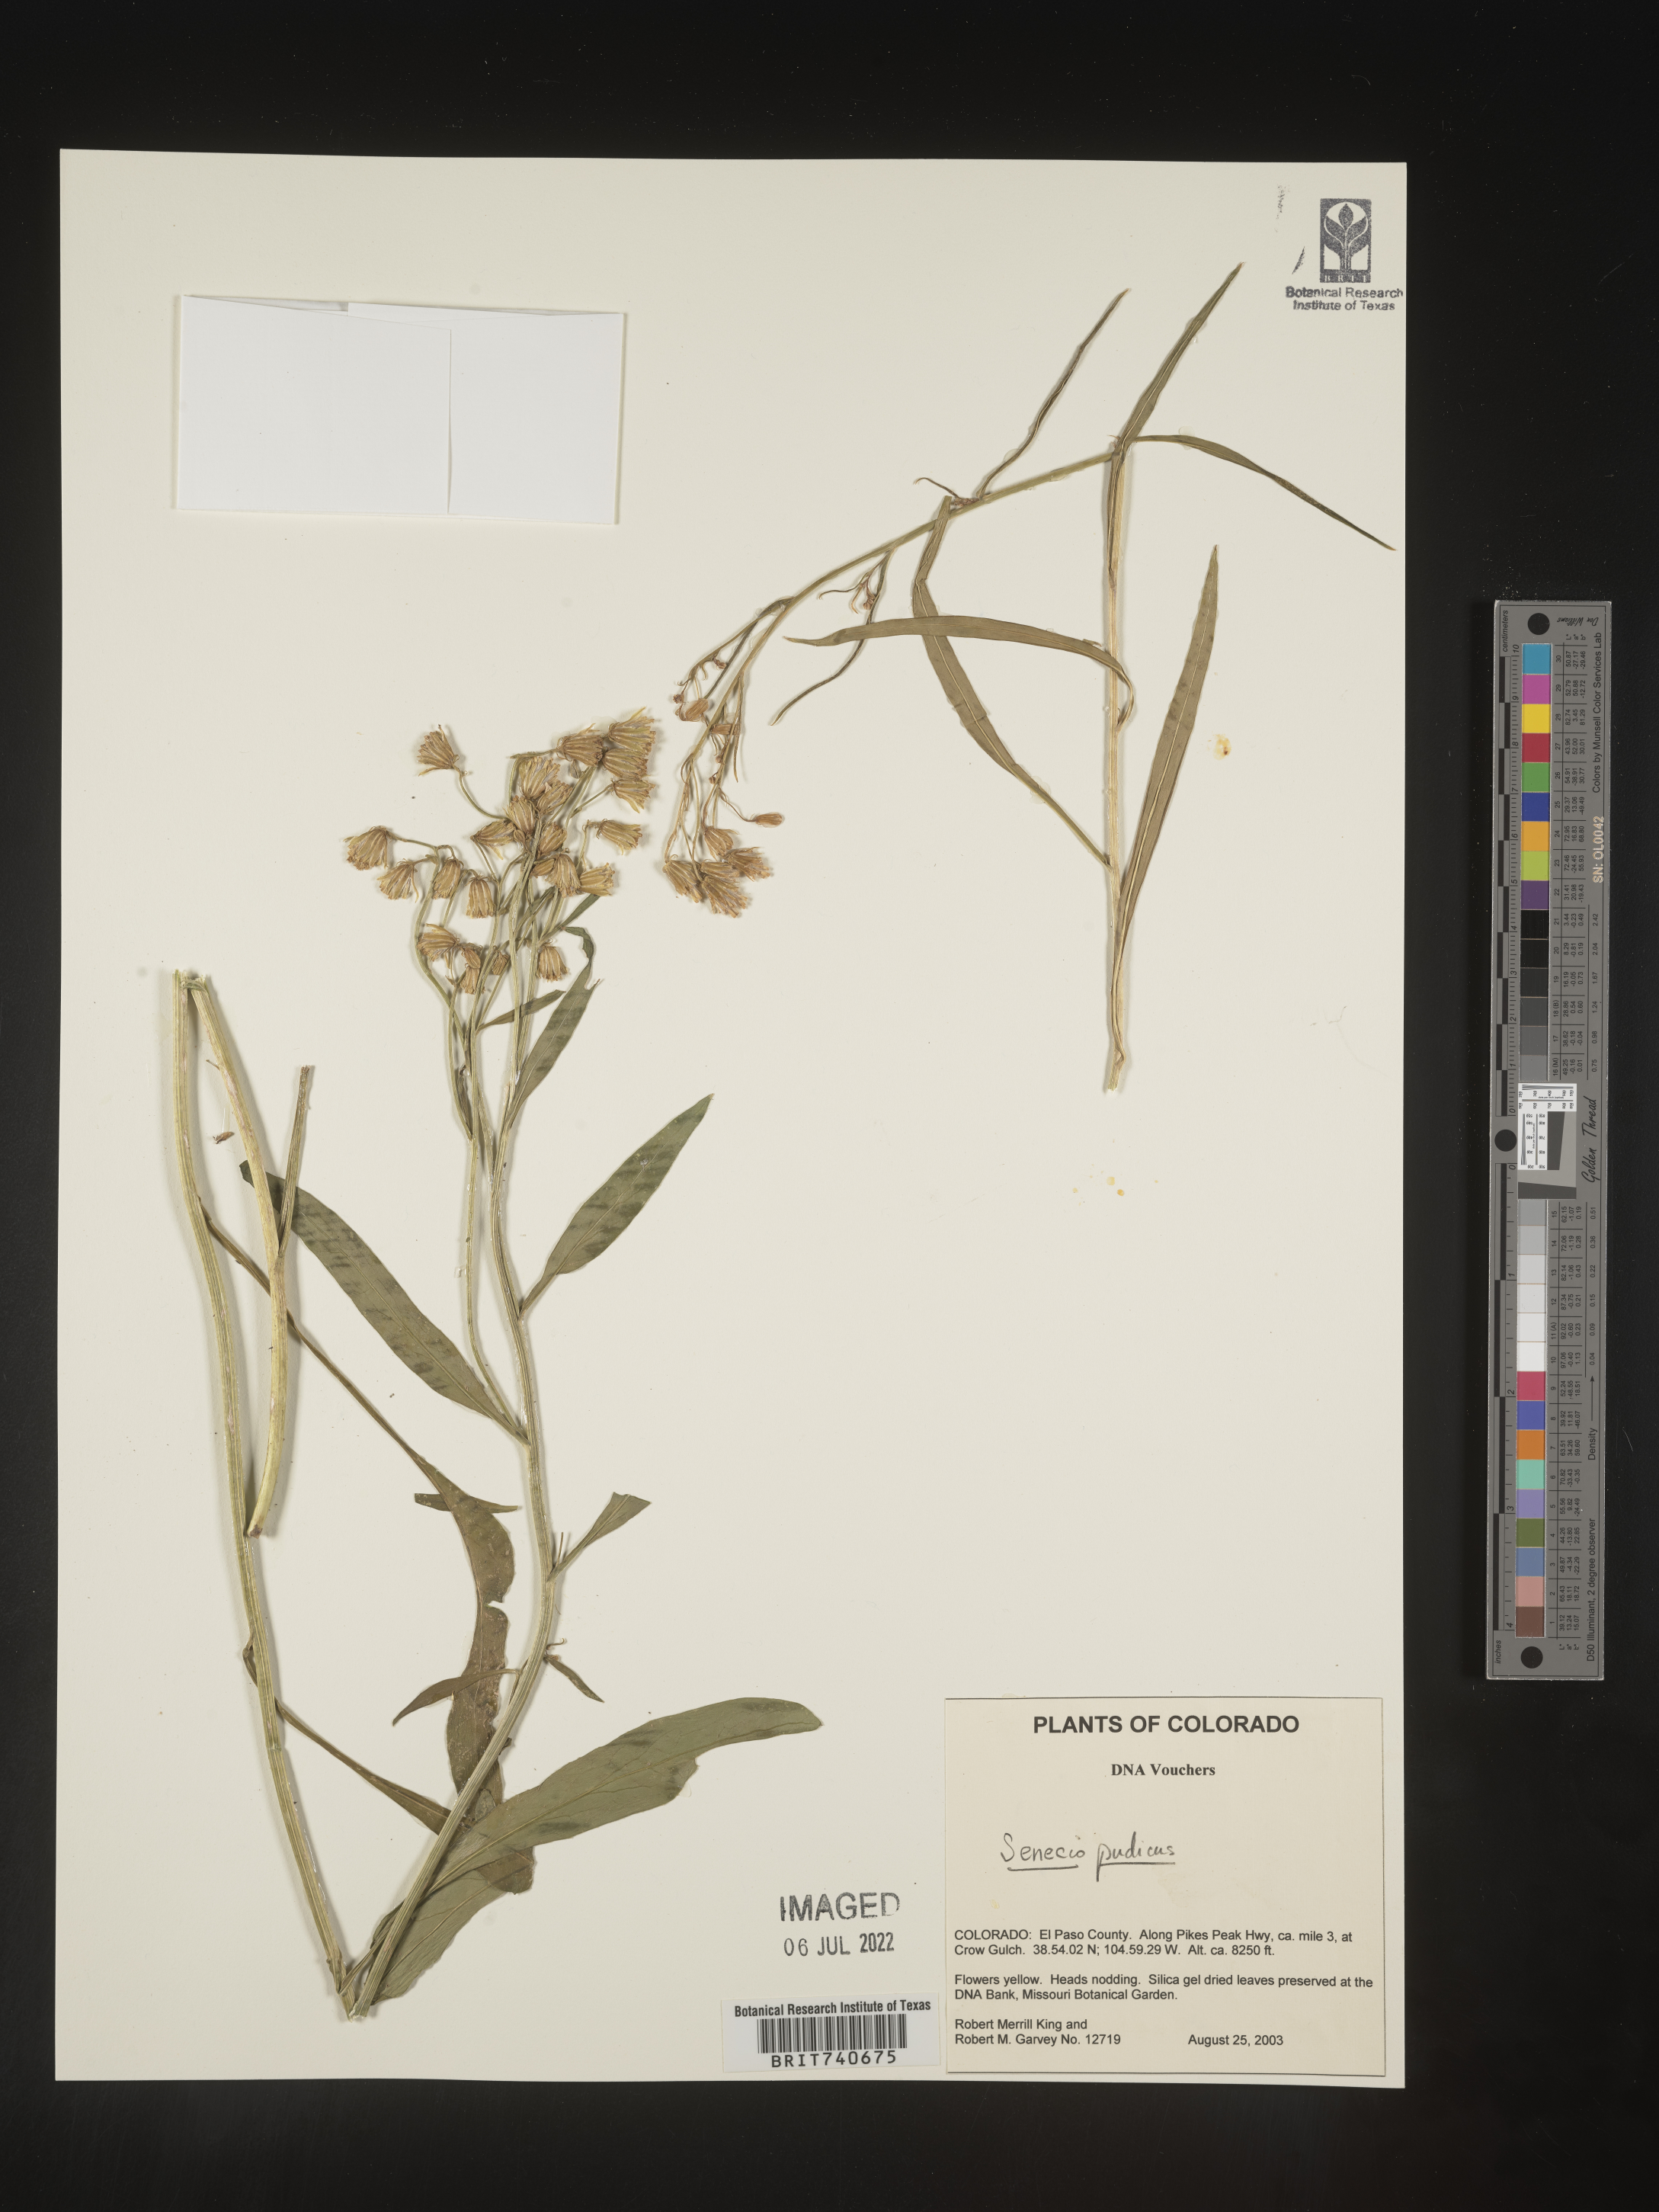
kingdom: Plantae
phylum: Tracheophyta
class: Magnoliopsida
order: Asterales
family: Asteraceae
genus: Senecio
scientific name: Senecio pudicus
